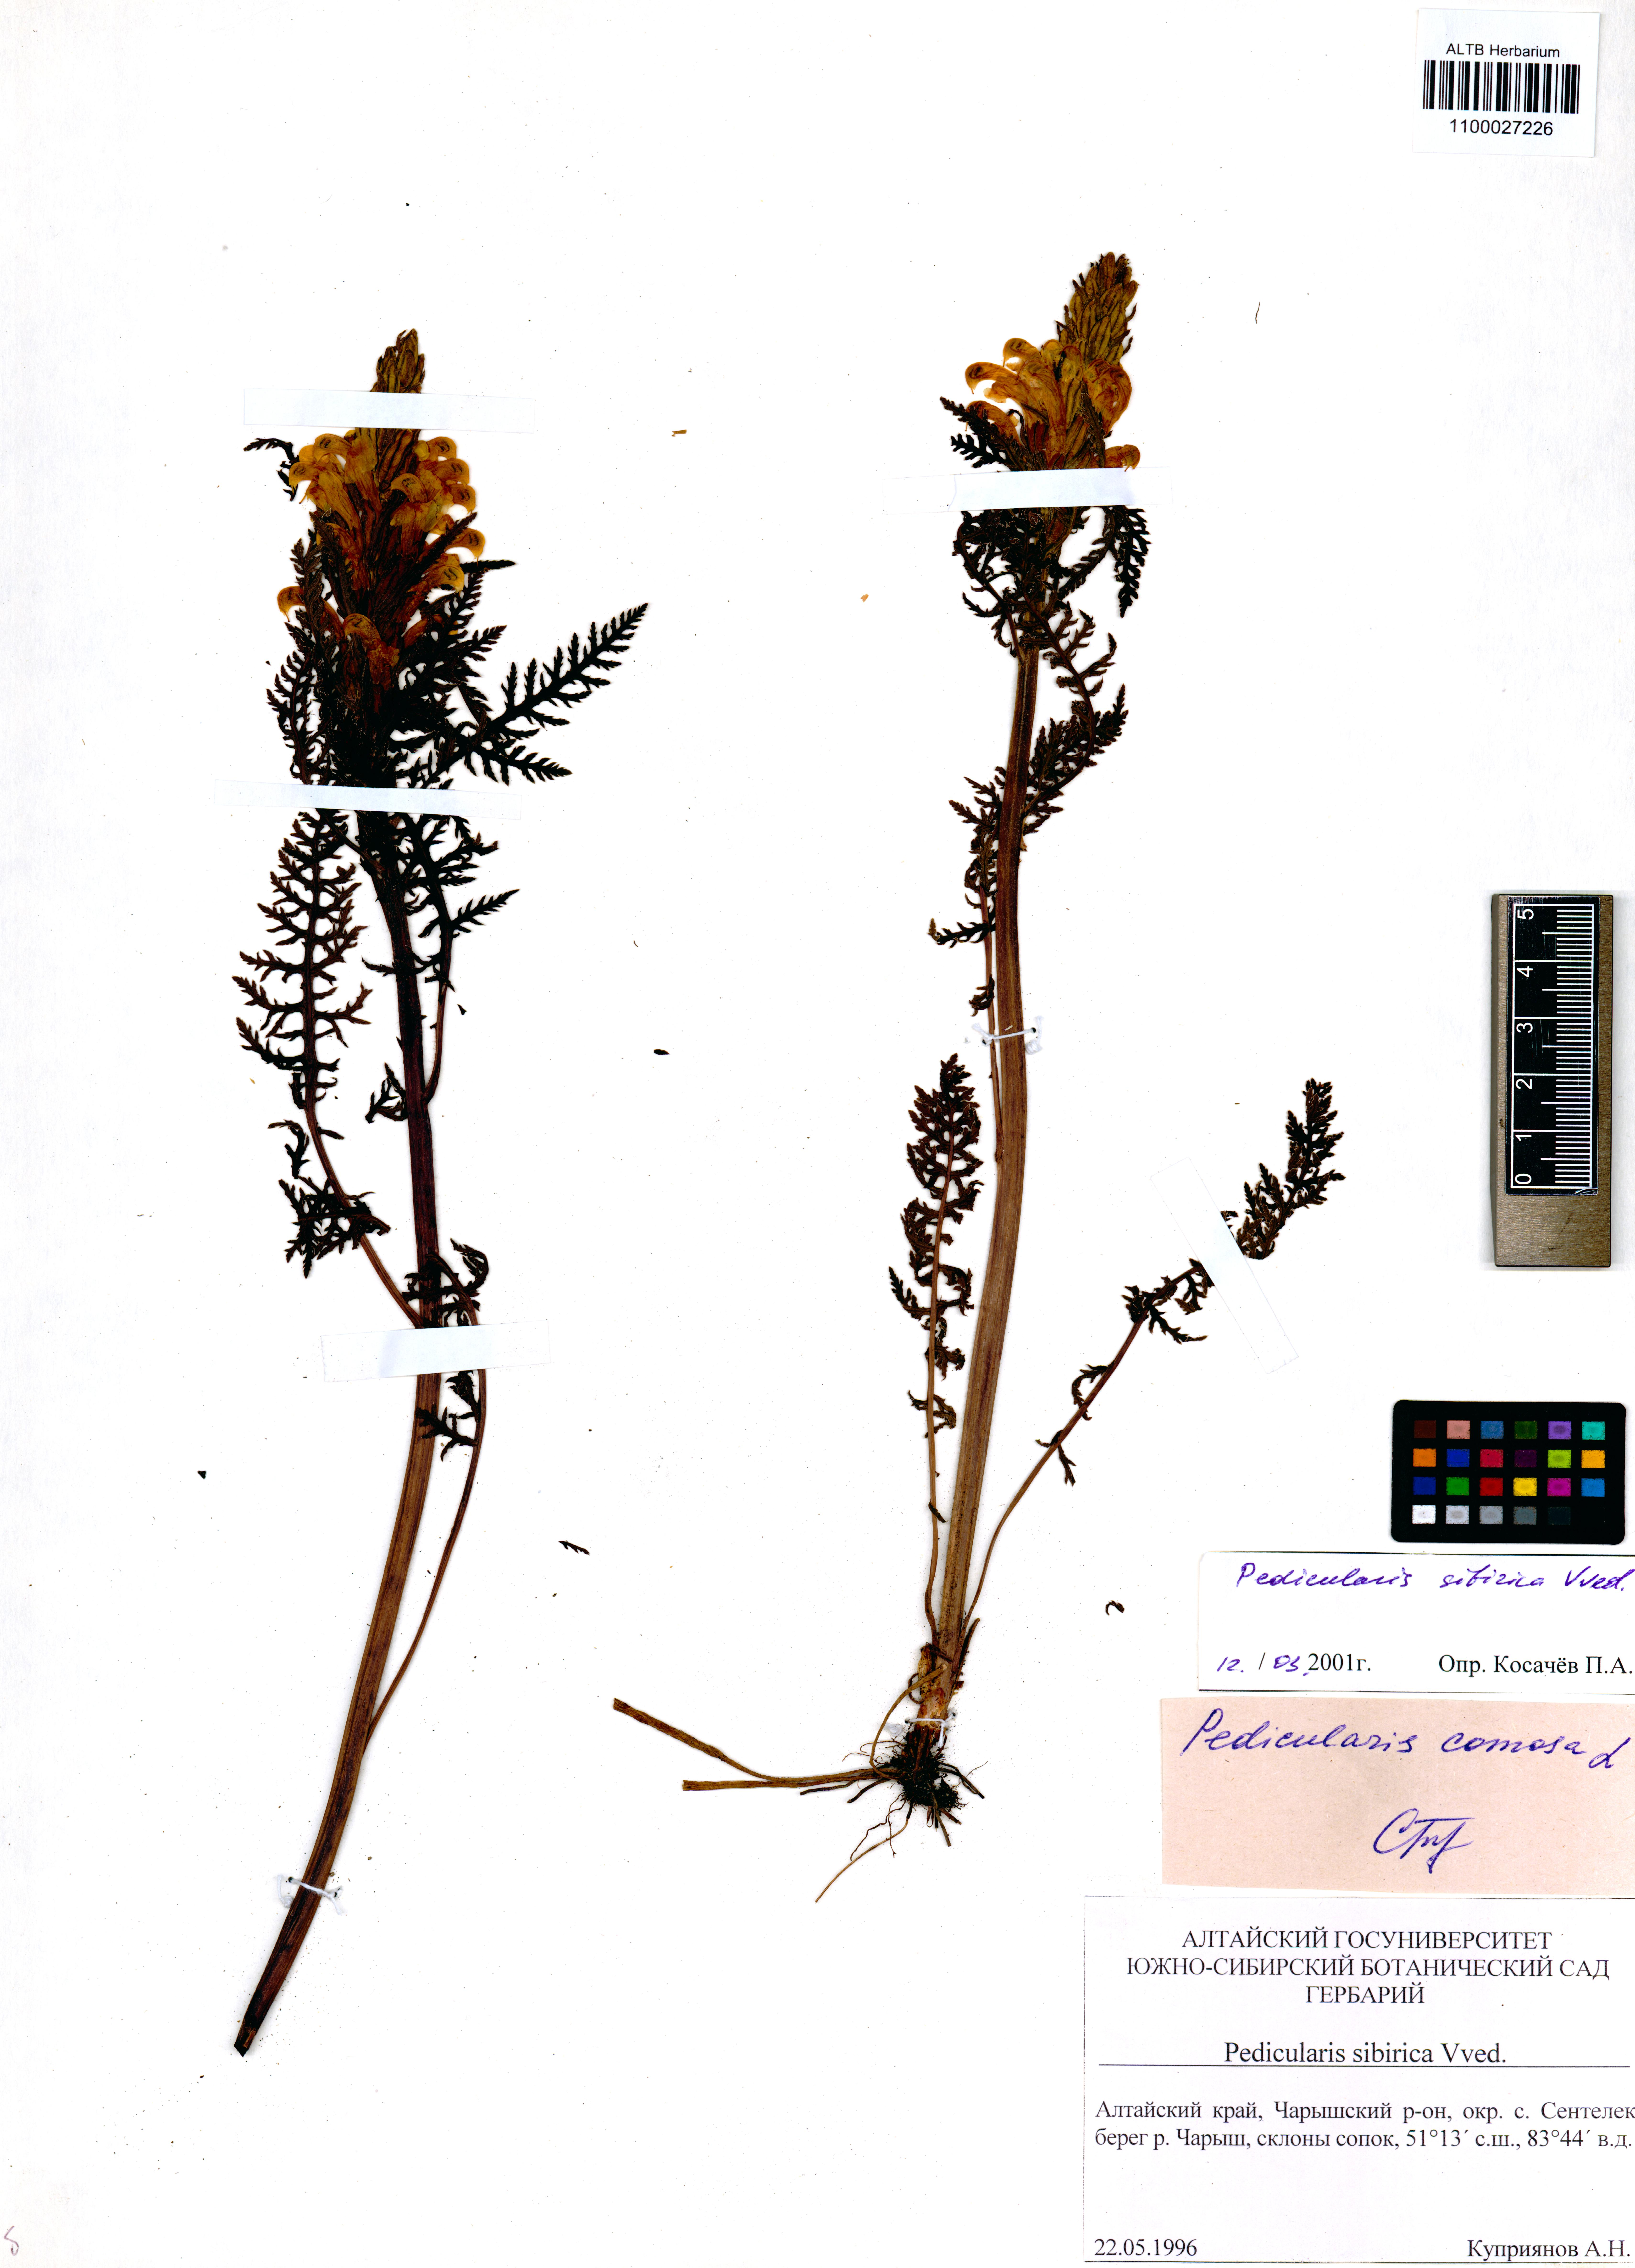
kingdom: Plantae
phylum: Tracheophyta
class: Magnoliopsida
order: Lamiales
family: Orobanchaceae
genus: Pedicularis
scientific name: Pedicularis sibirica
